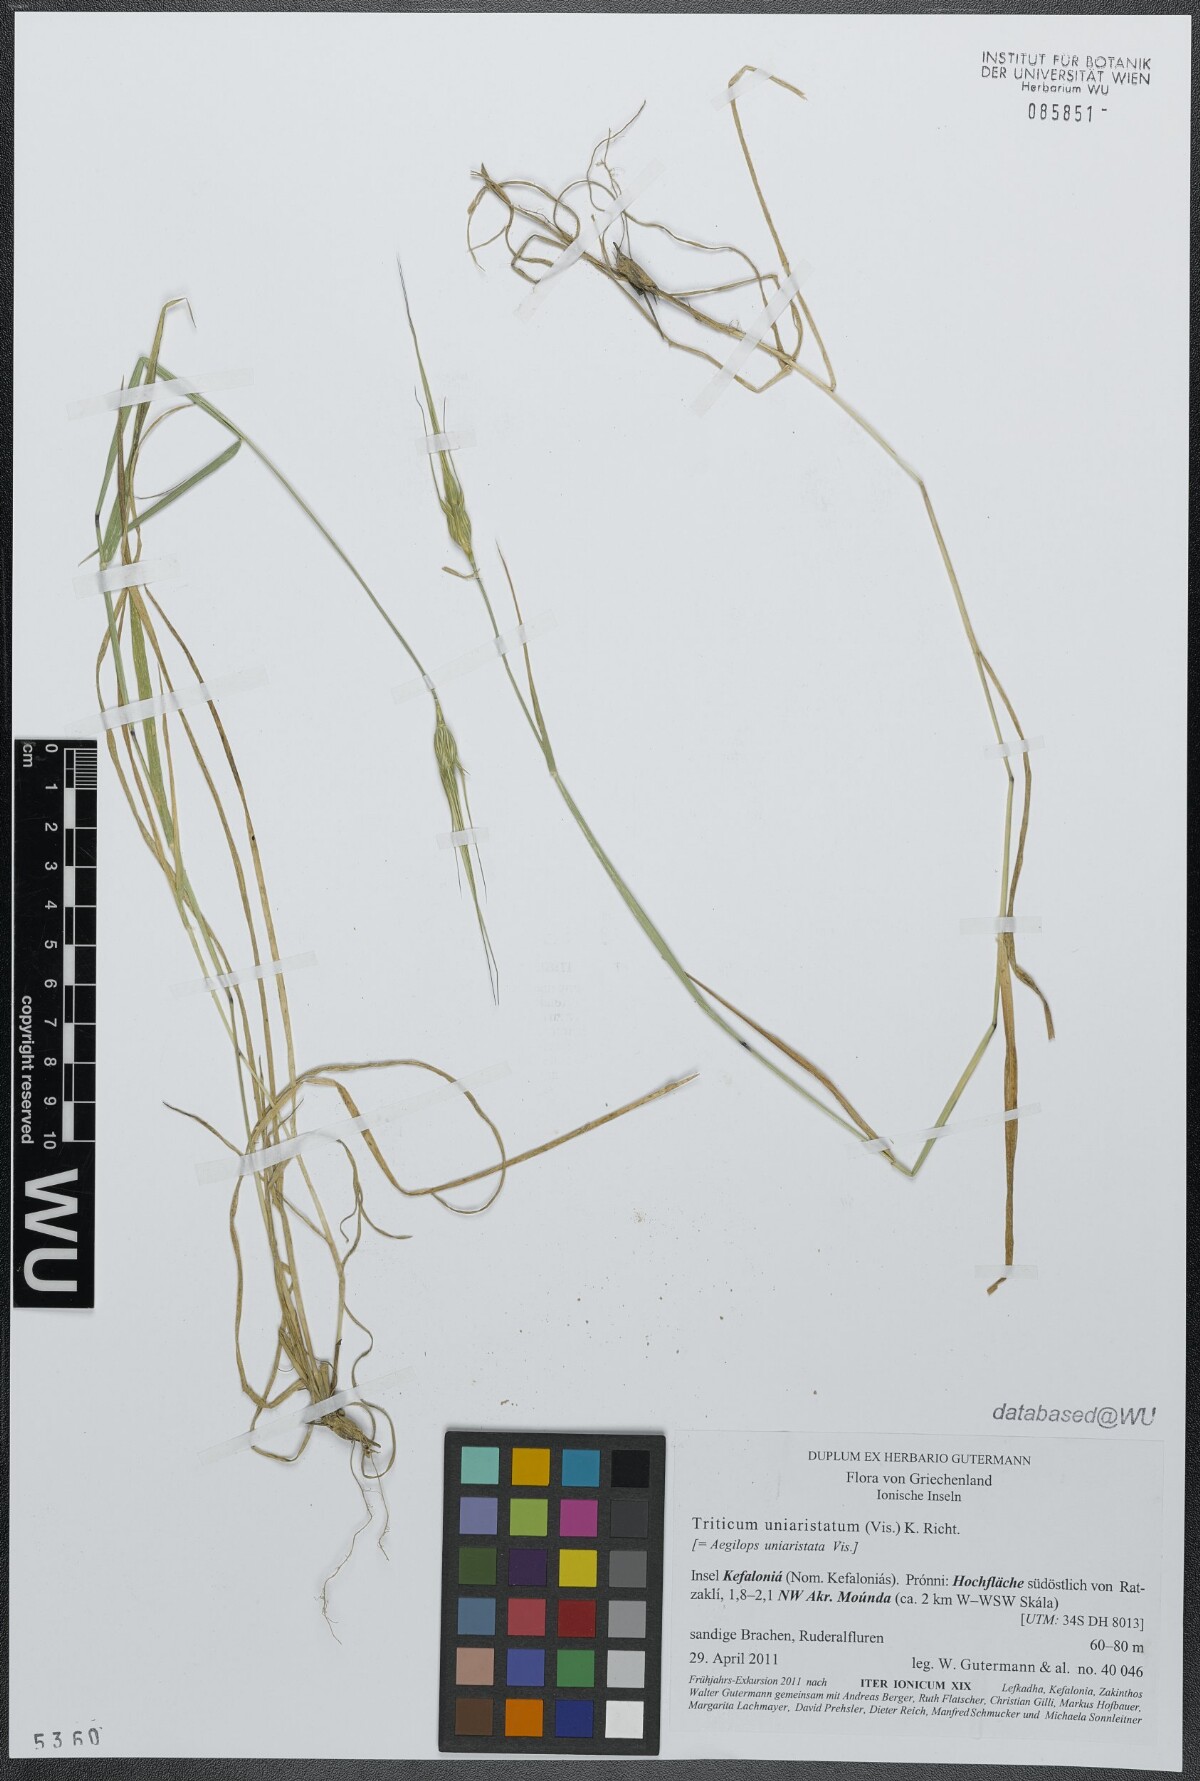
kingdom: Plantae
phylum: Tracheophyta
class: Liliopsida
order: Poales
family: Poaceae
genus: Aegilops
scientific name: Aegilops uniaristata
